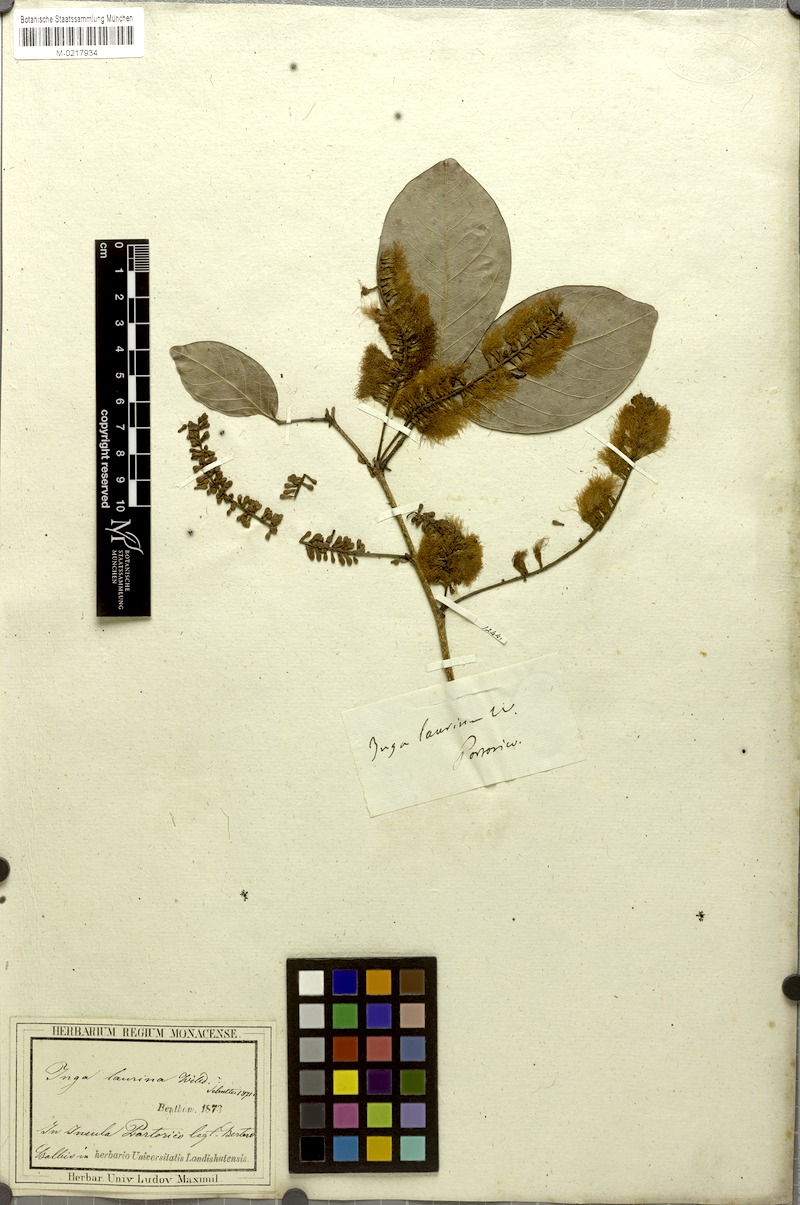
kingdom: Plantae
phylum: Tracheophyta
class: Magnoliopsida
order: Fabales
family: Fabaceae
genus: Inga
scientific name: Inga laurina
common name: Red wood
